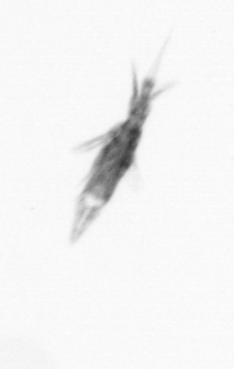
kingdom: Animalia
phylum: Arthropoda
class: Copepoda
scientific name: Copepoda
